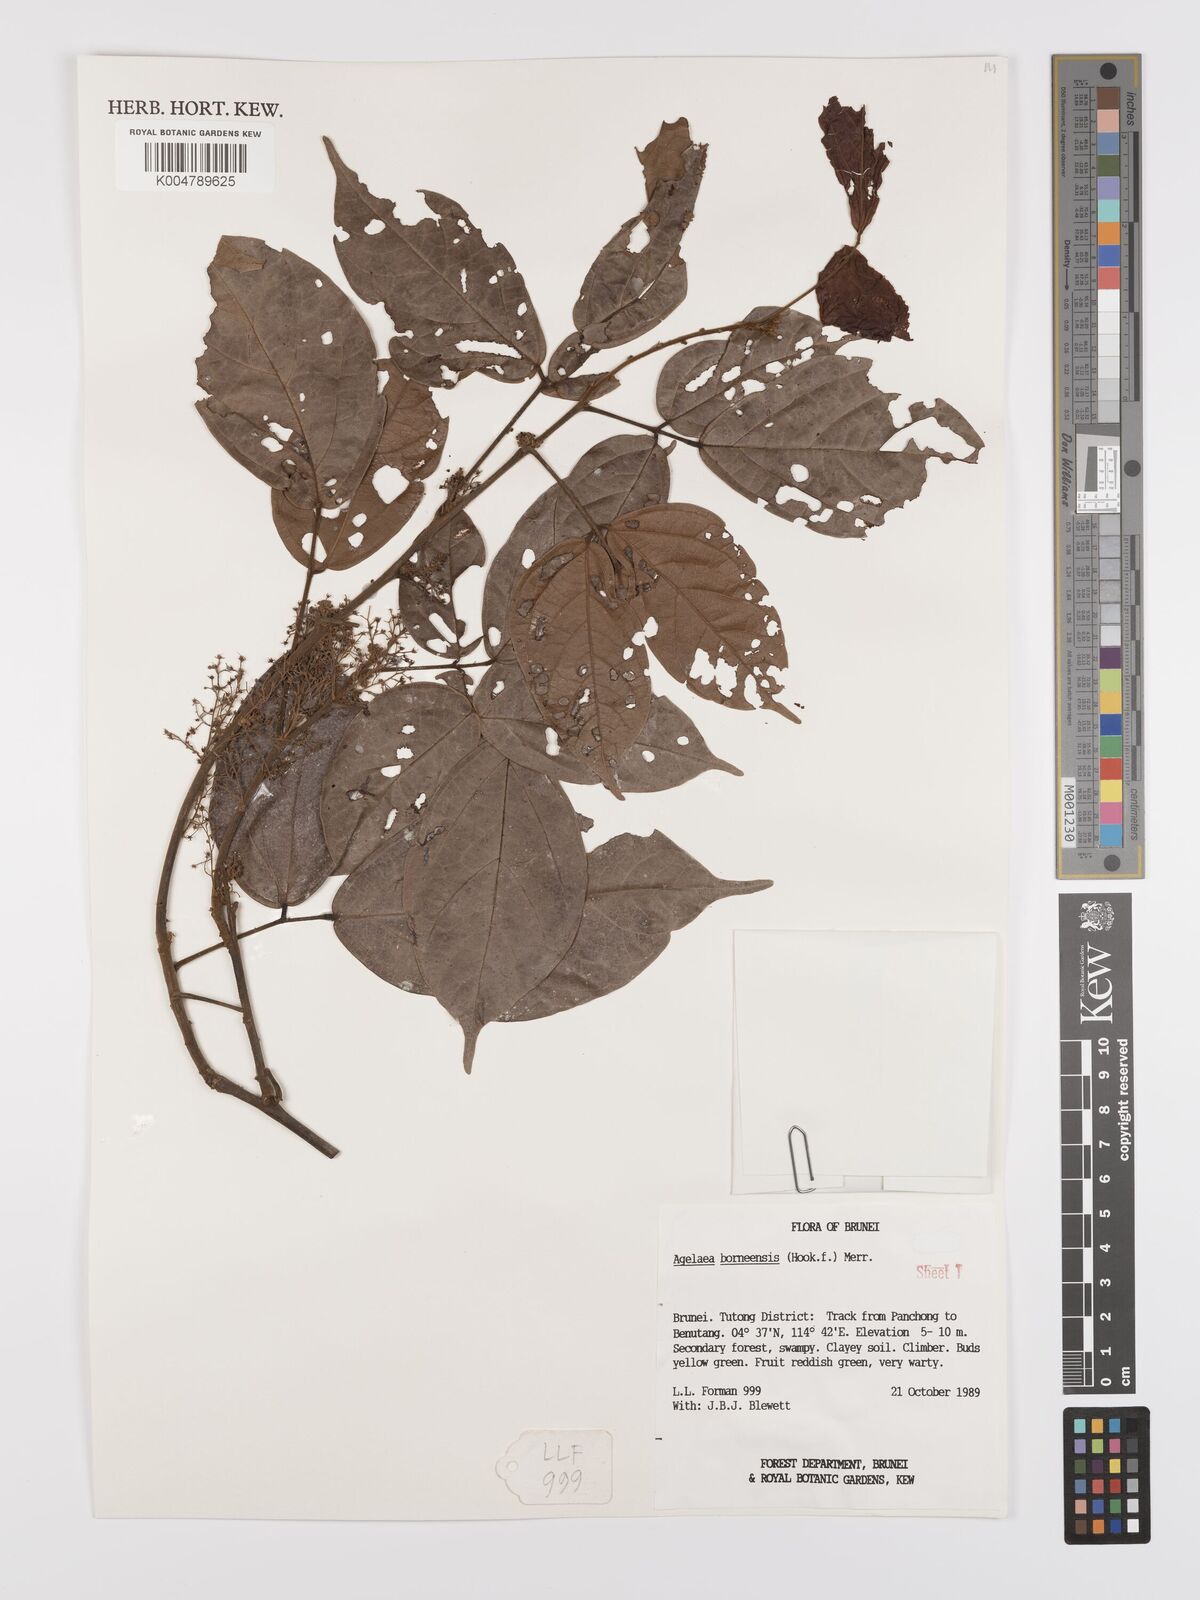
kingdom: Plantae
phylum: Tracheophyta
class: Magnoliopsida
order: Oxalidales
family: Connaraceae
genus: Agelaea
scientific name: Agelaea borneensis
